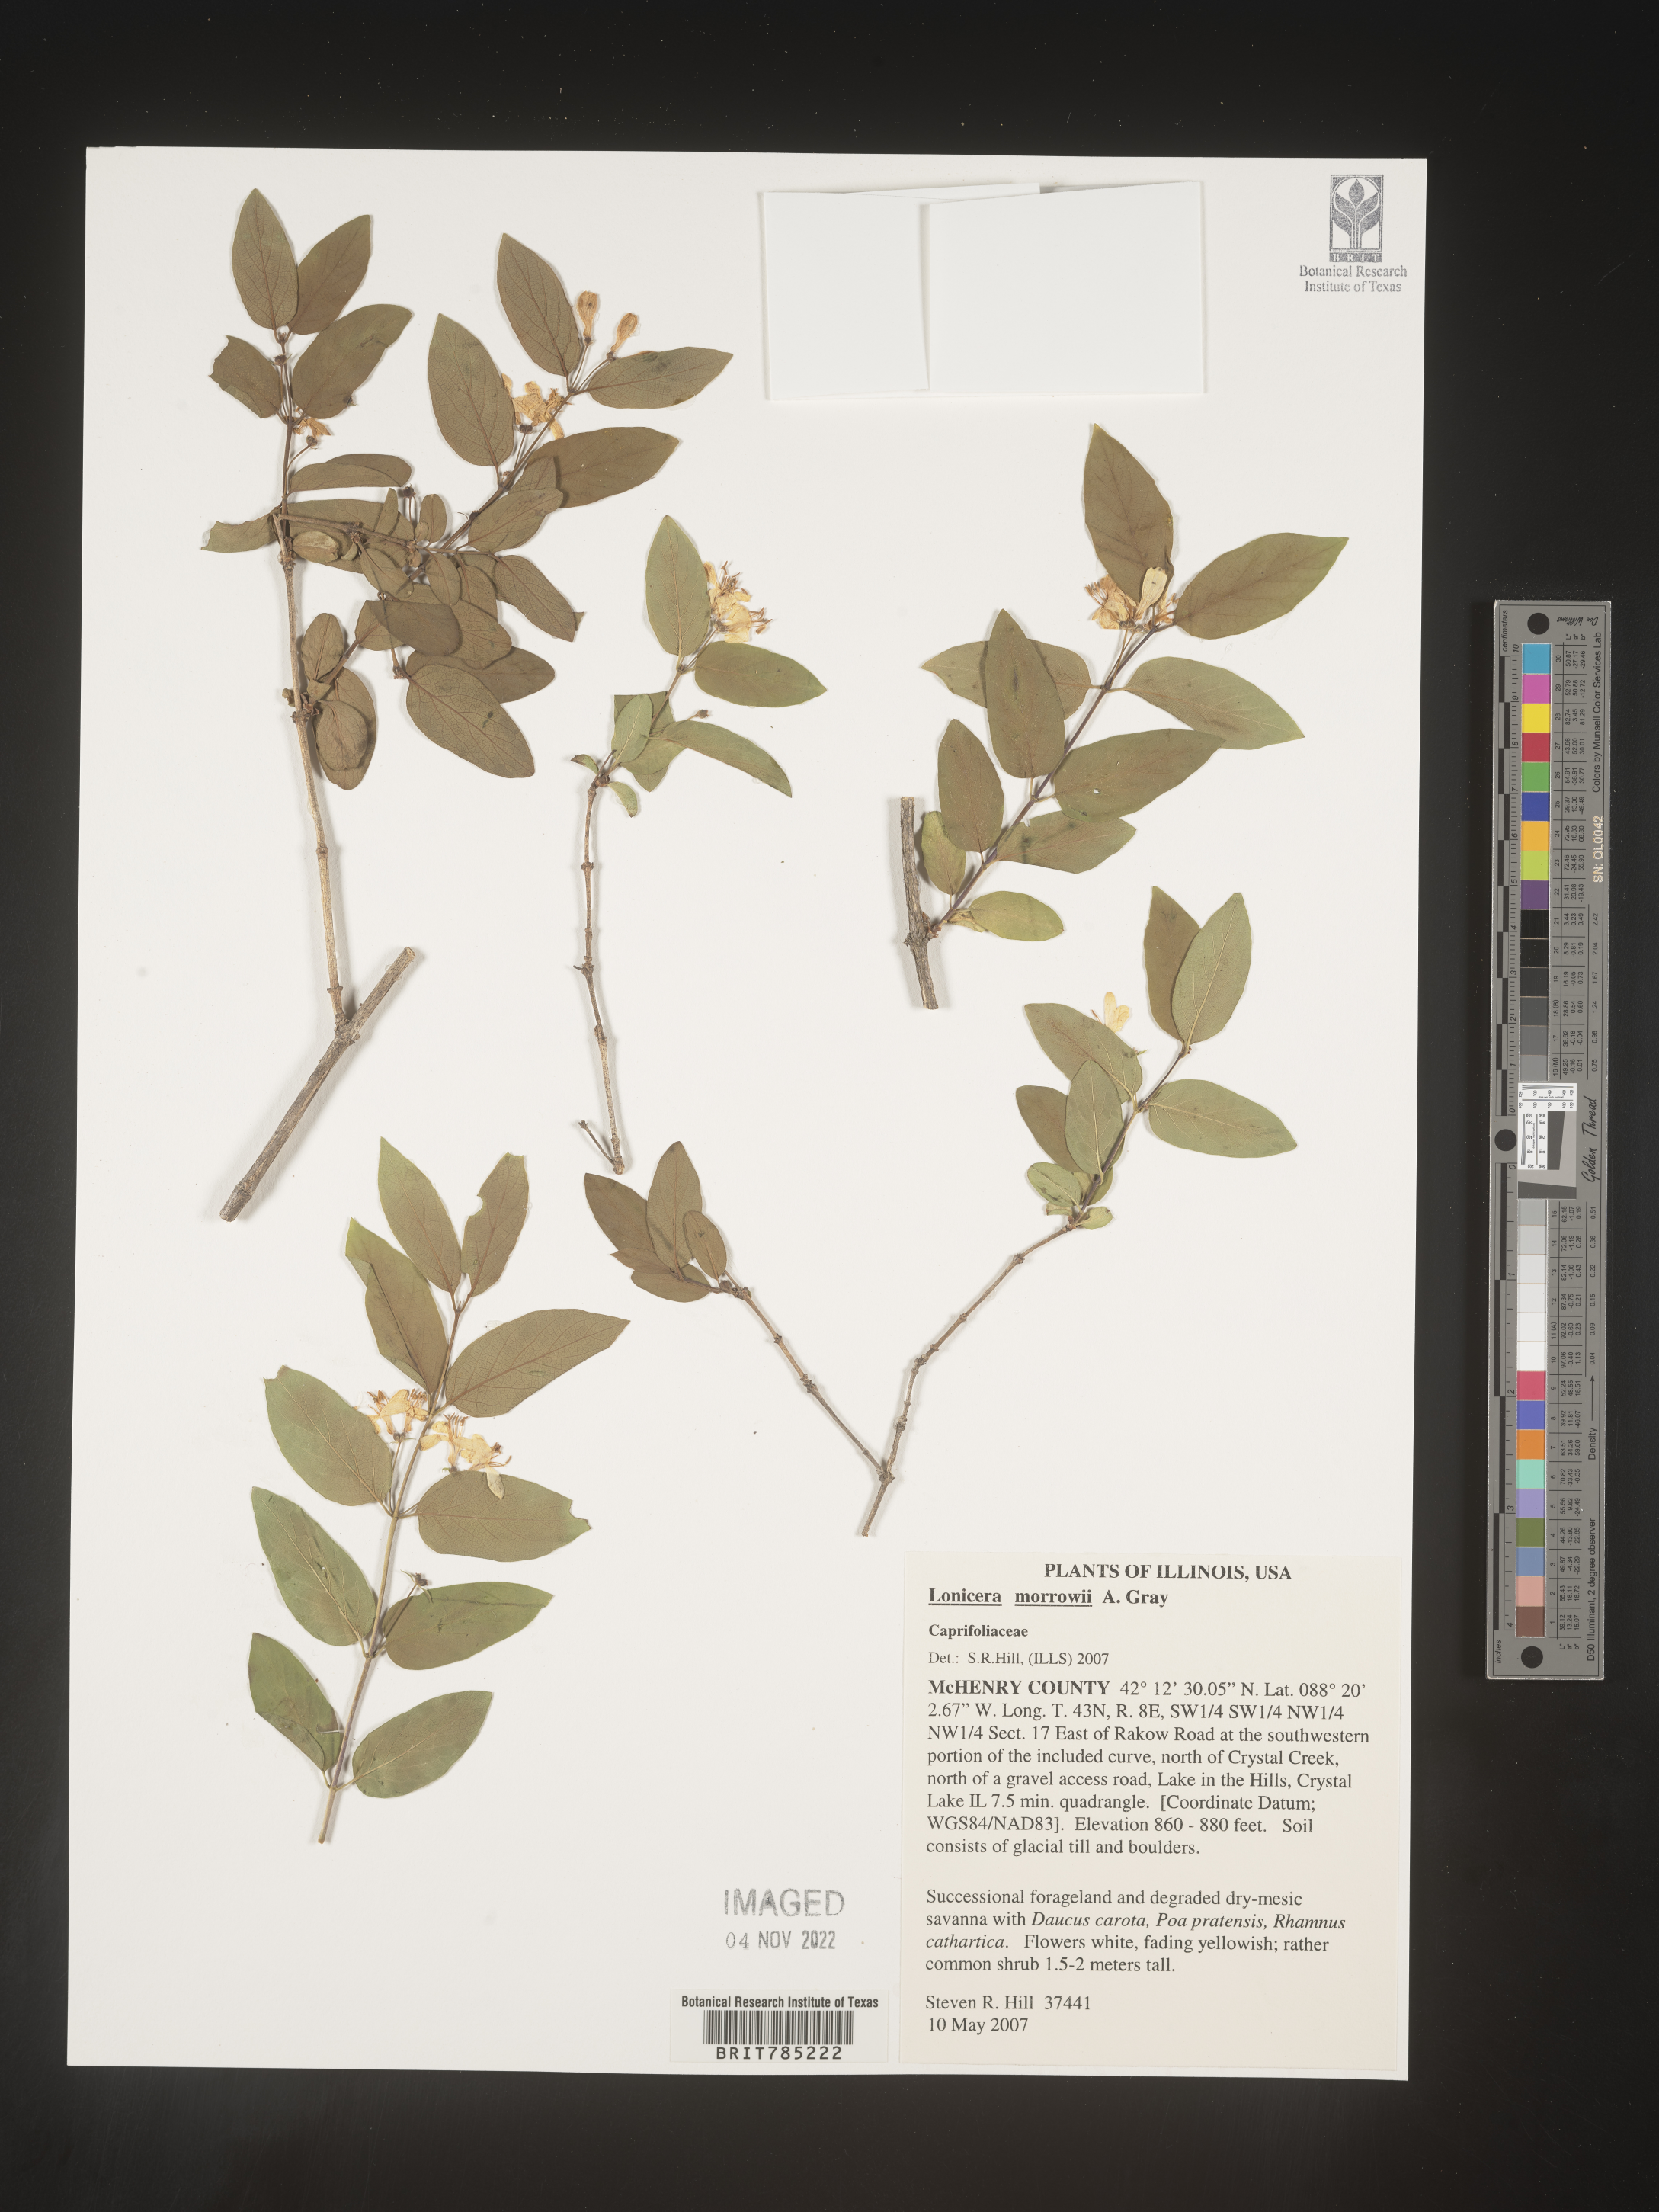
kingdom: Plantae
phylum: Tracheophyta
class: Magnoliopsida
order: Dipsacales
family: Caprifoliaceae
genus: Lonicera
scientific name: Lonicera
